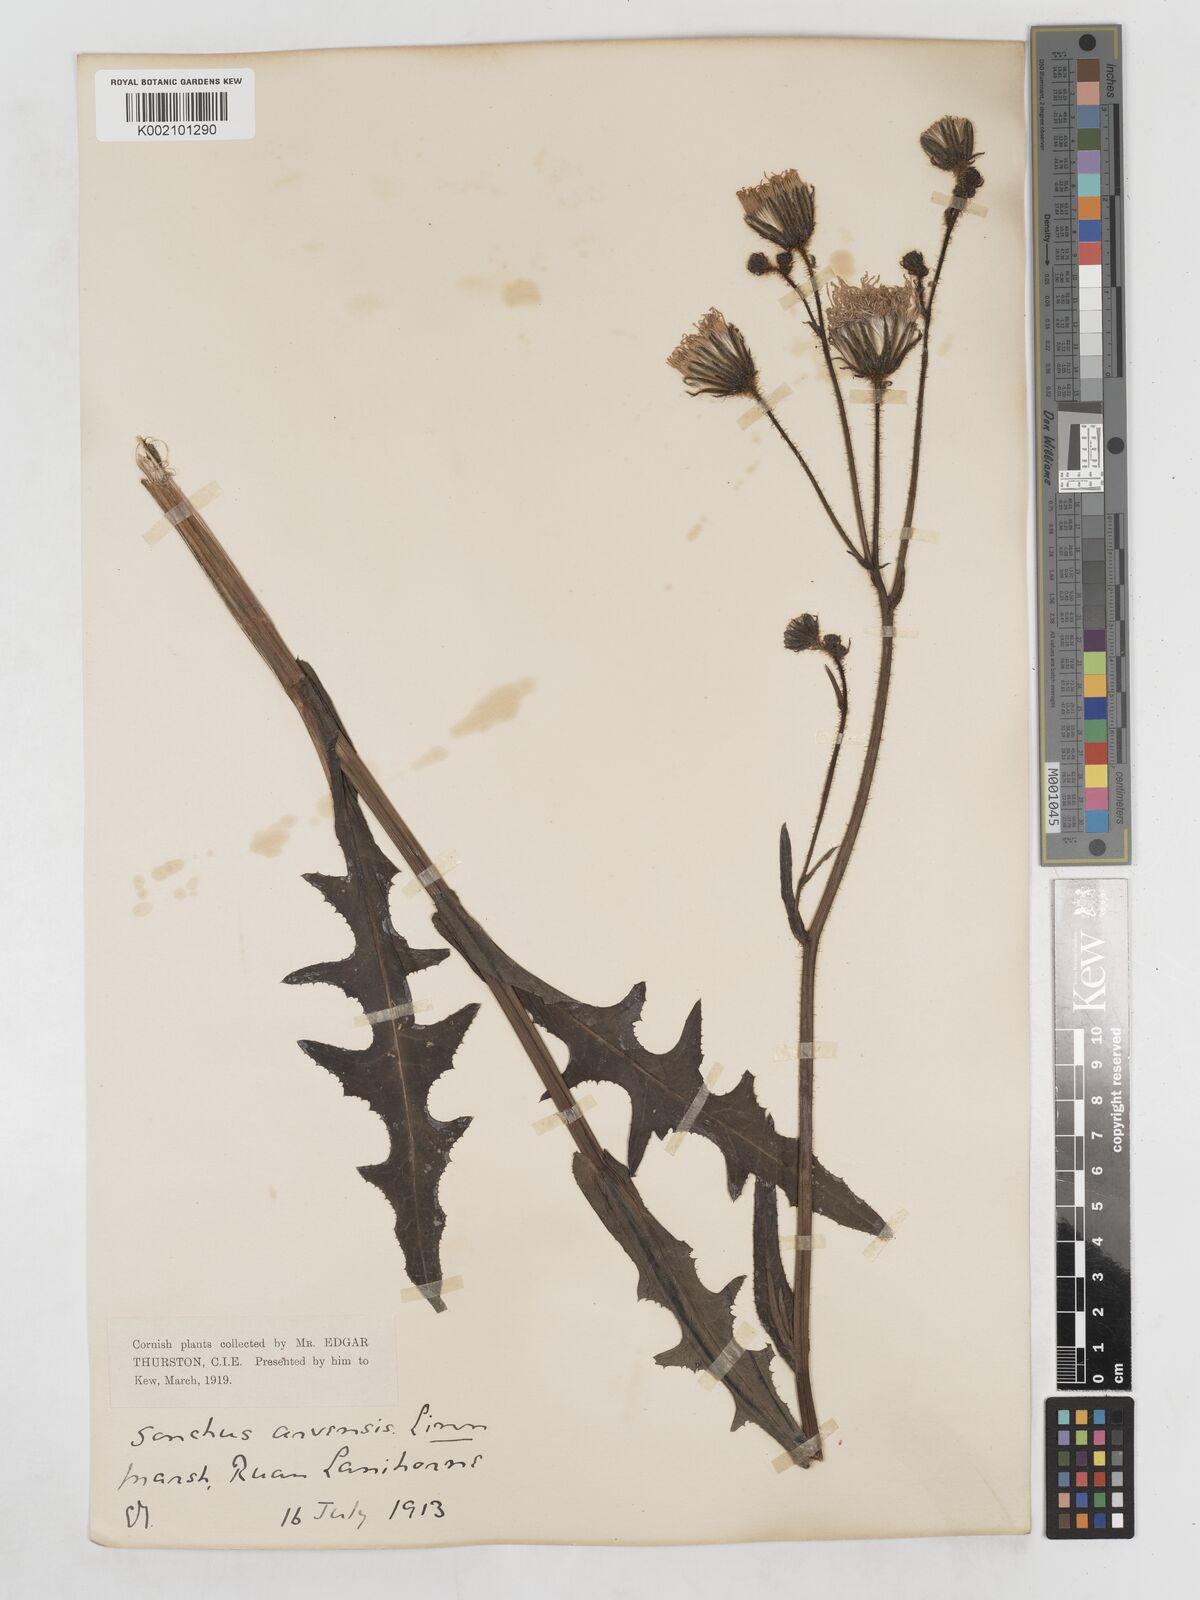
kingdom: Plantae
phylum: Tracheophyta
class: Magnoliopsida
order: Asterales
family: Asteraceae
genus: Sonchus
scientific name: Sonchus arvensis
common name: Perennial sow-thistle
